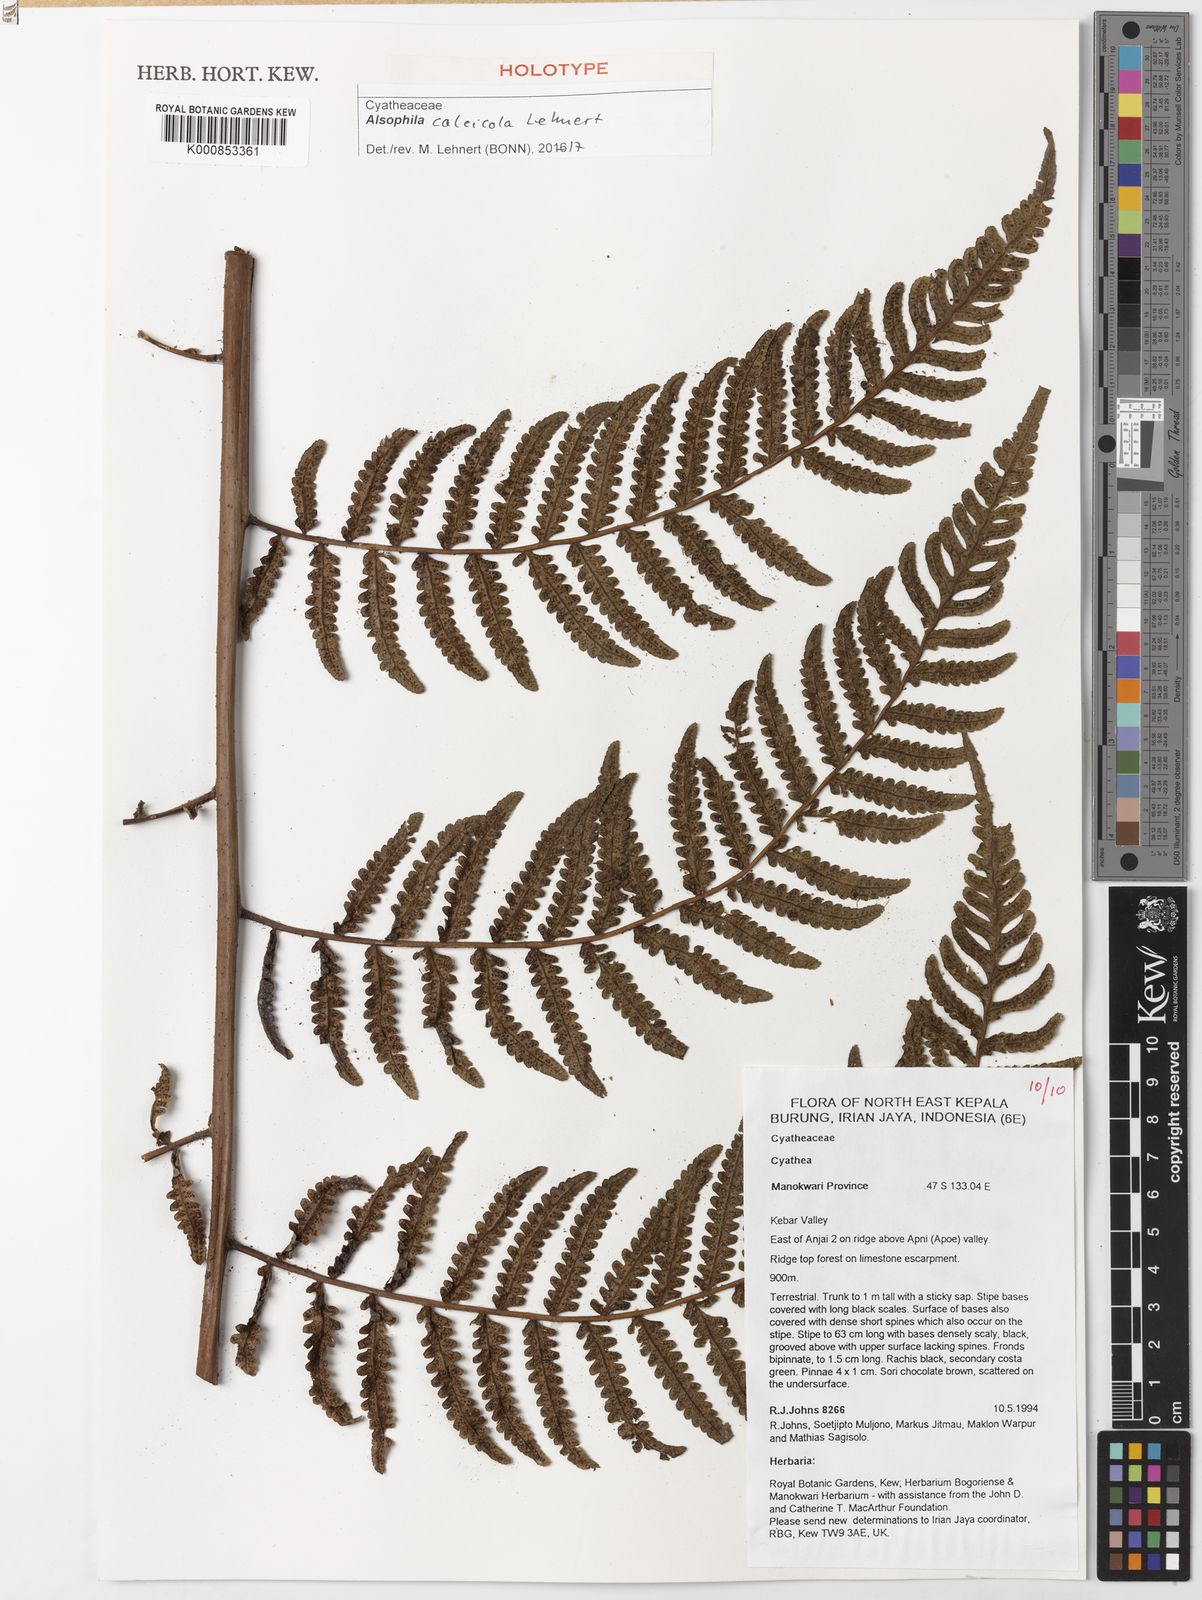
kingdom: Plantae
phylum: Tracheophyta
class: Polypodiopsida
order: Cyatheales
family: Cyatheaceae
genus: Alsophila
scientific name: Alsophila calcicola
